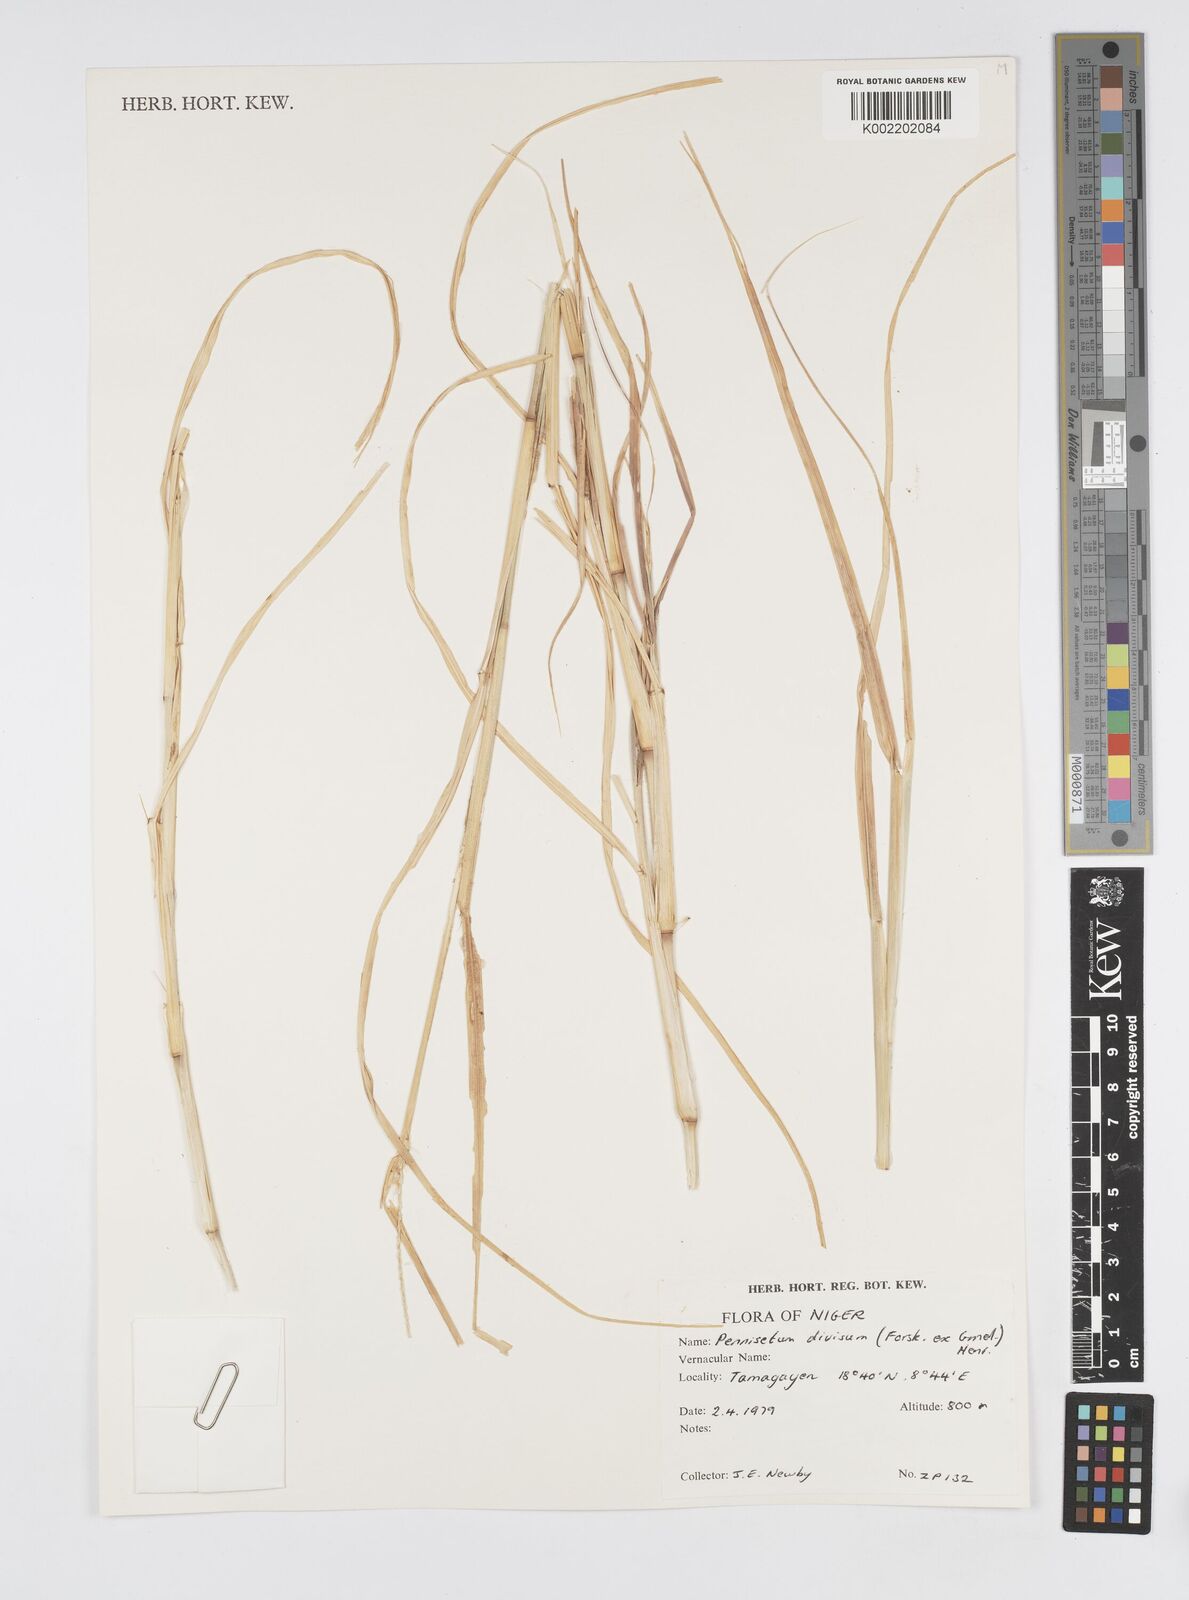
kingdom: Plantae
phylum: Tracheophyta
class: Liliopsida
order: Poales
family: Poaceae
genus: Cenchrus
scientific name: Cenchrus divisus
